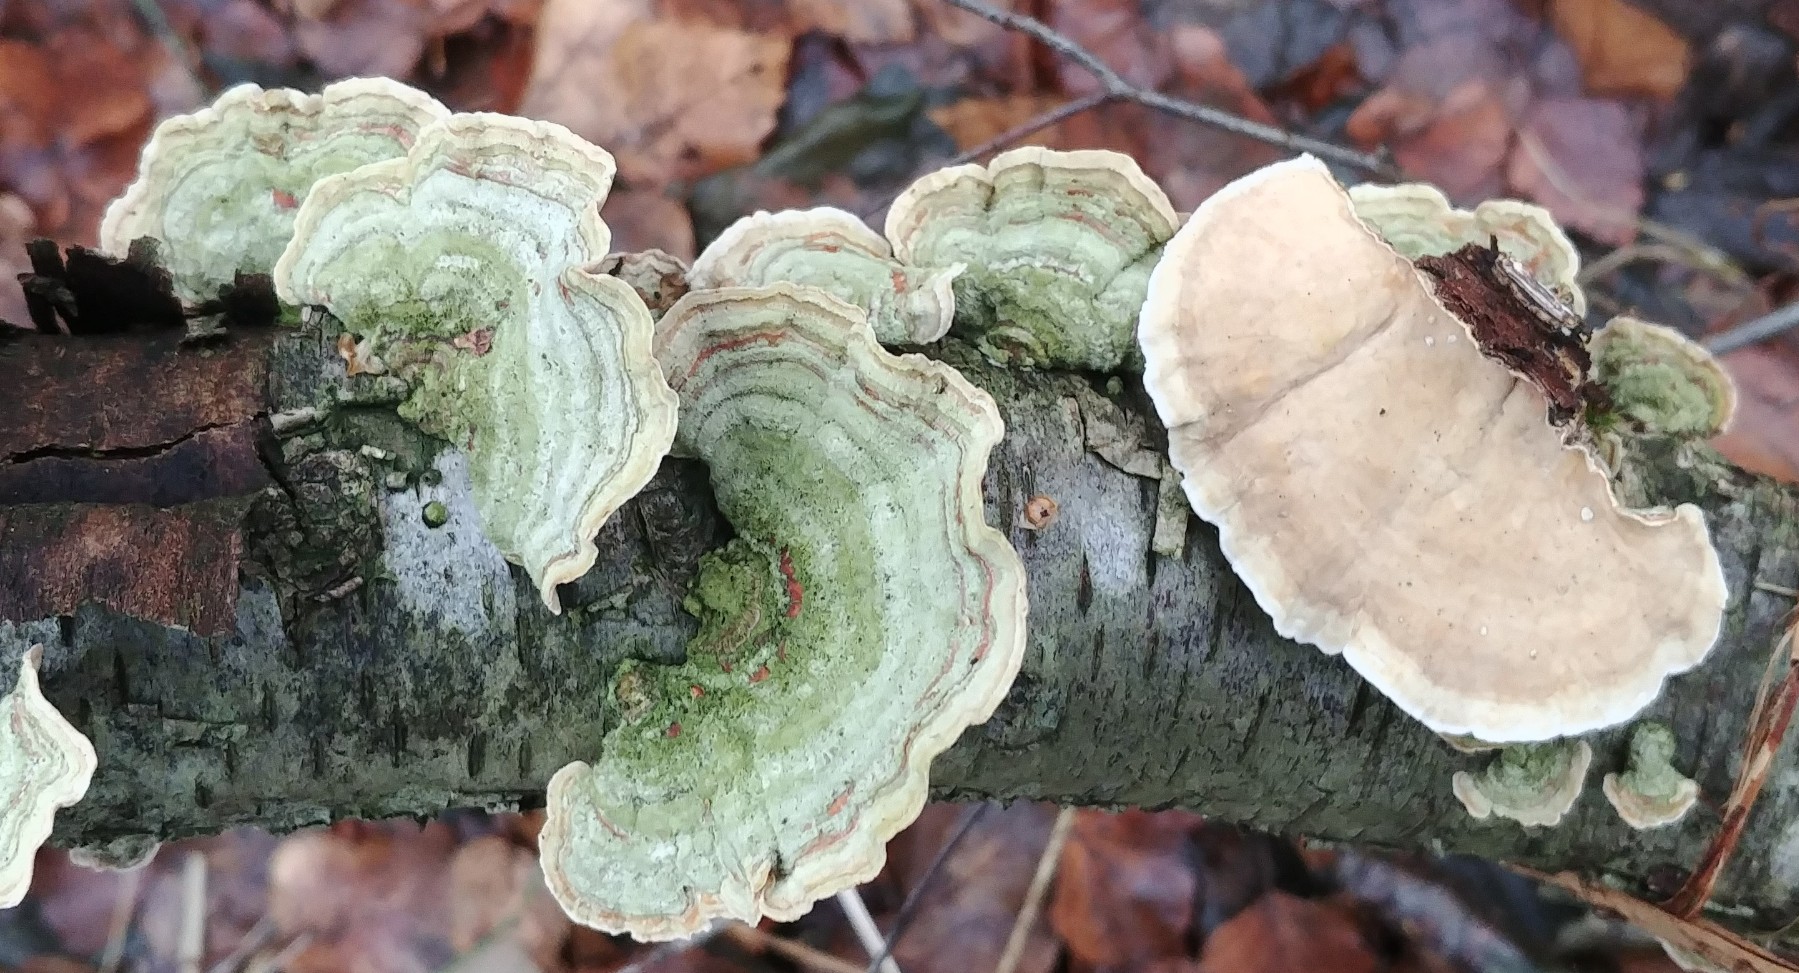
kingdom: Fungi
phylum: Basidiomycota
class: Agaricomycetes
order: Russulales
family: Stereaceae
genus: Stereum
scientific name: Stereum subtomentosum
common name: smuk lædersvamp
